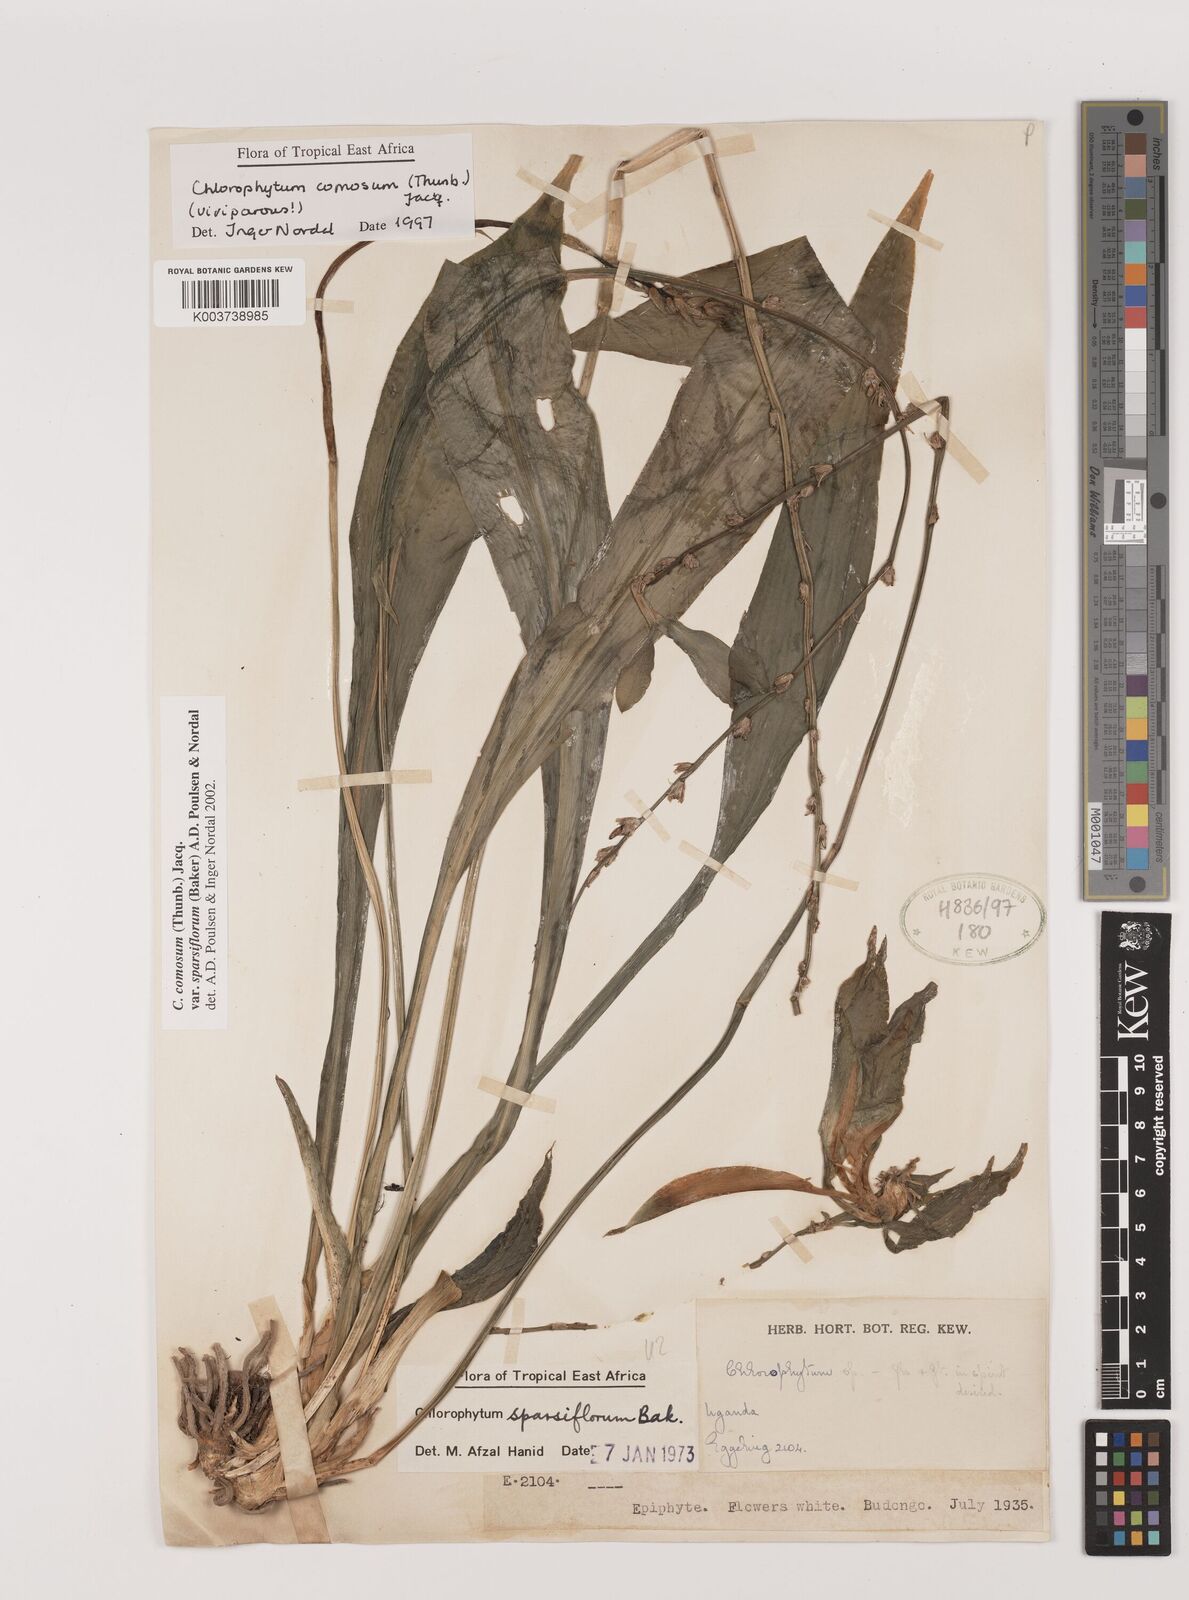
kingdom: Plantae
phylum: Tracheophyta
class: Liliopsida
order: Asparagales
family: Asparagaceae
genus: Chlorophytum
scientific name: Chlorophytum sparsiflorum
